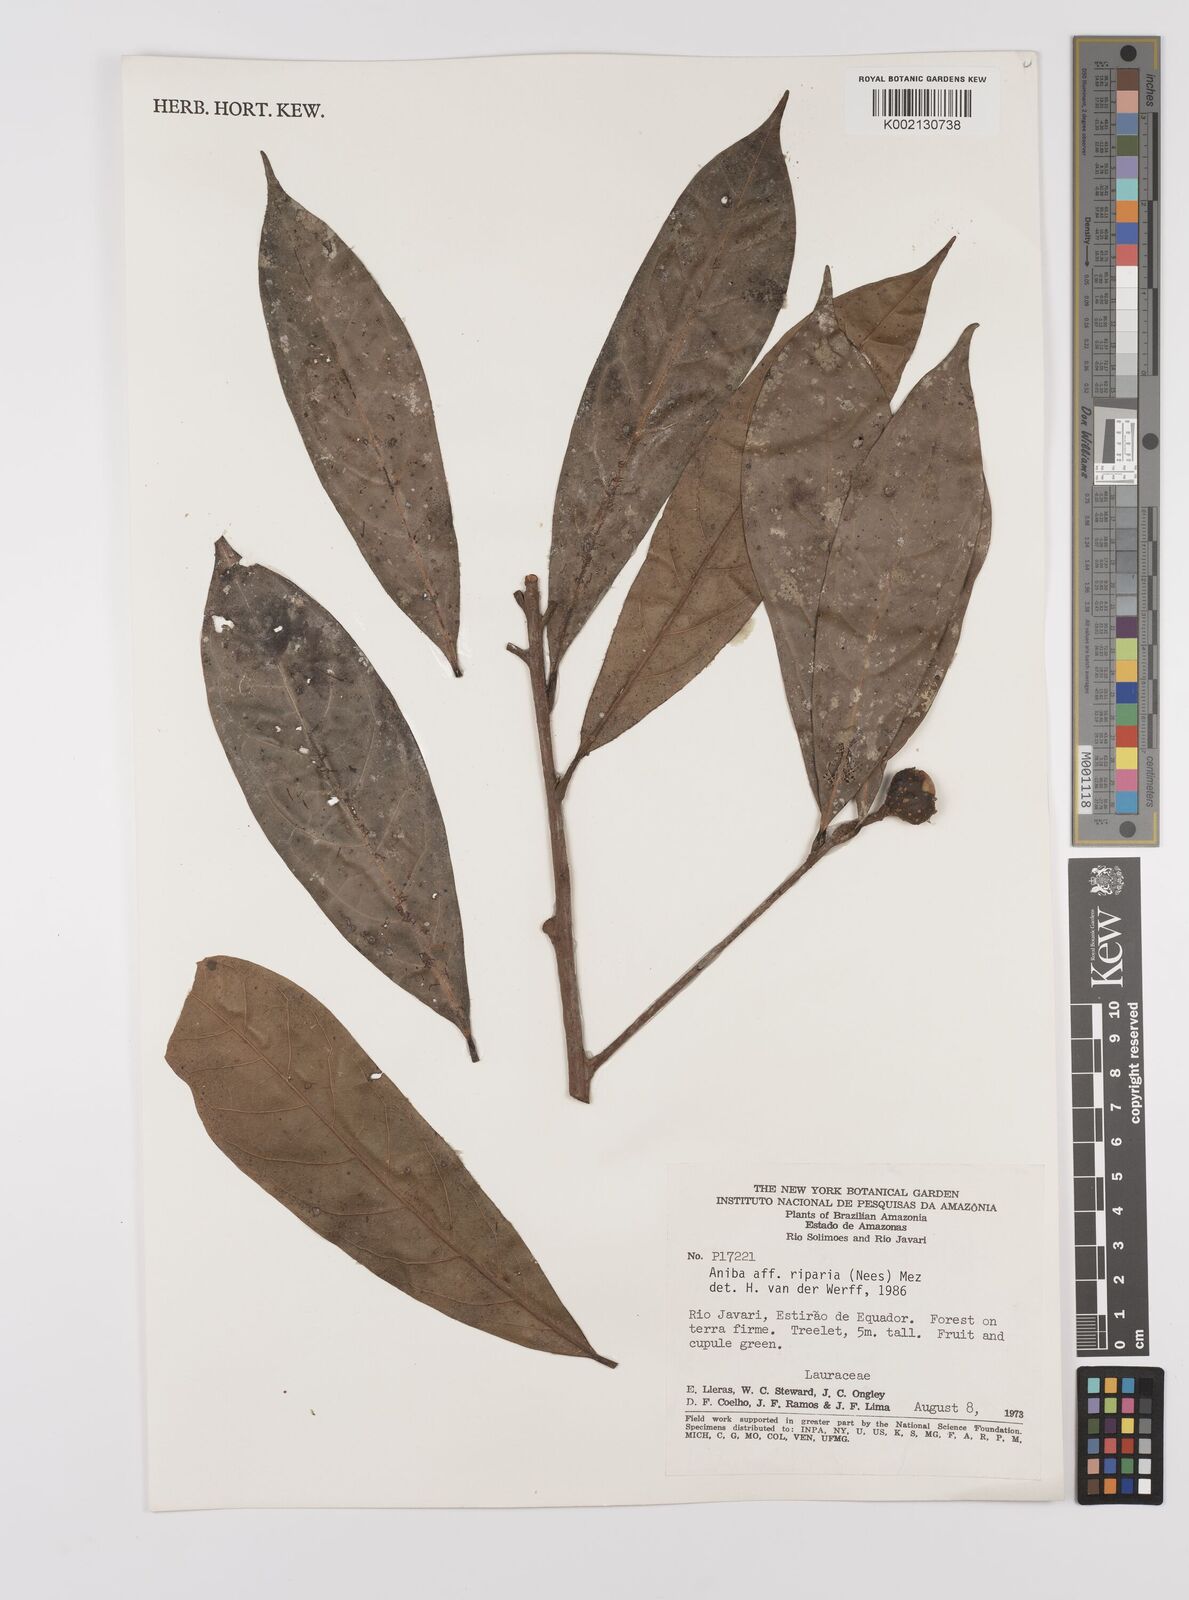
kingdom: Plantae
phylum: Tracheophyta
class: Magnoliopsida
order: Laurales
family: Lauraceae
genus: Aniba
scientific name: Aniba riparia
